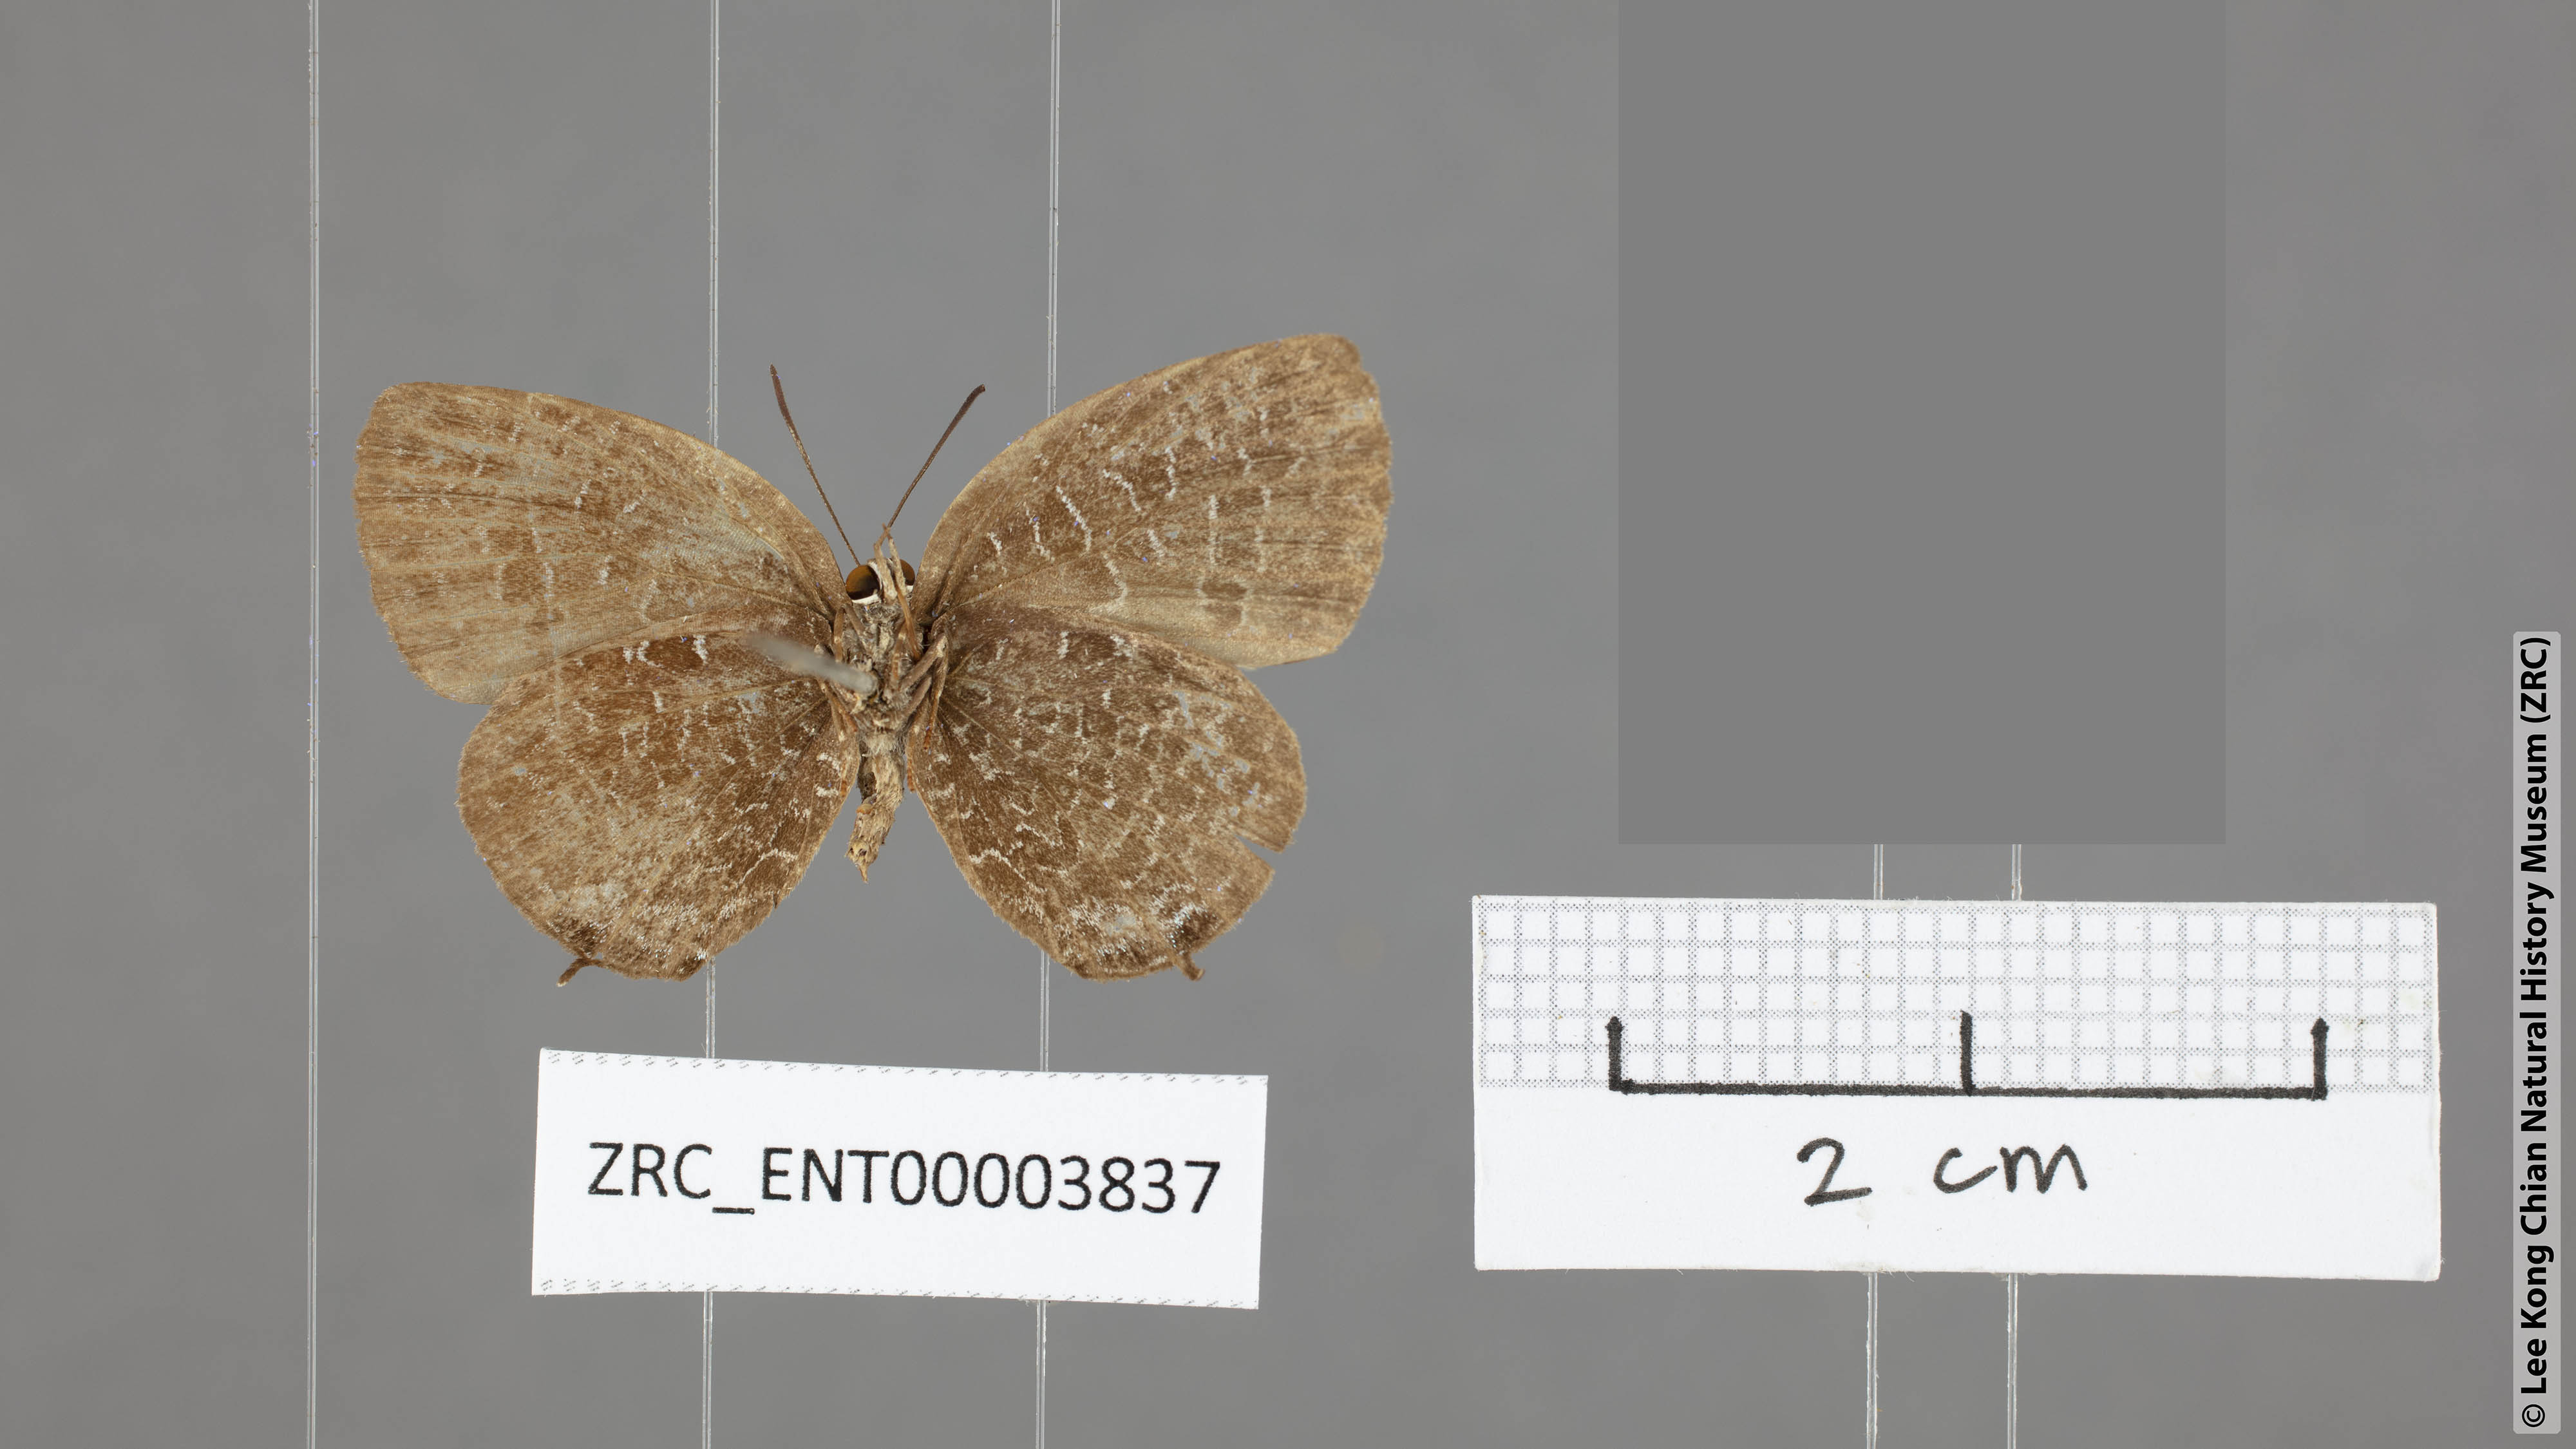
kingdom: Animalia
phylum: Arthropoda
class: Insecta
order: Lepidoptera
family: Lycaenidae
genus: Arhopala
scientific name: Arhopala ammonides
